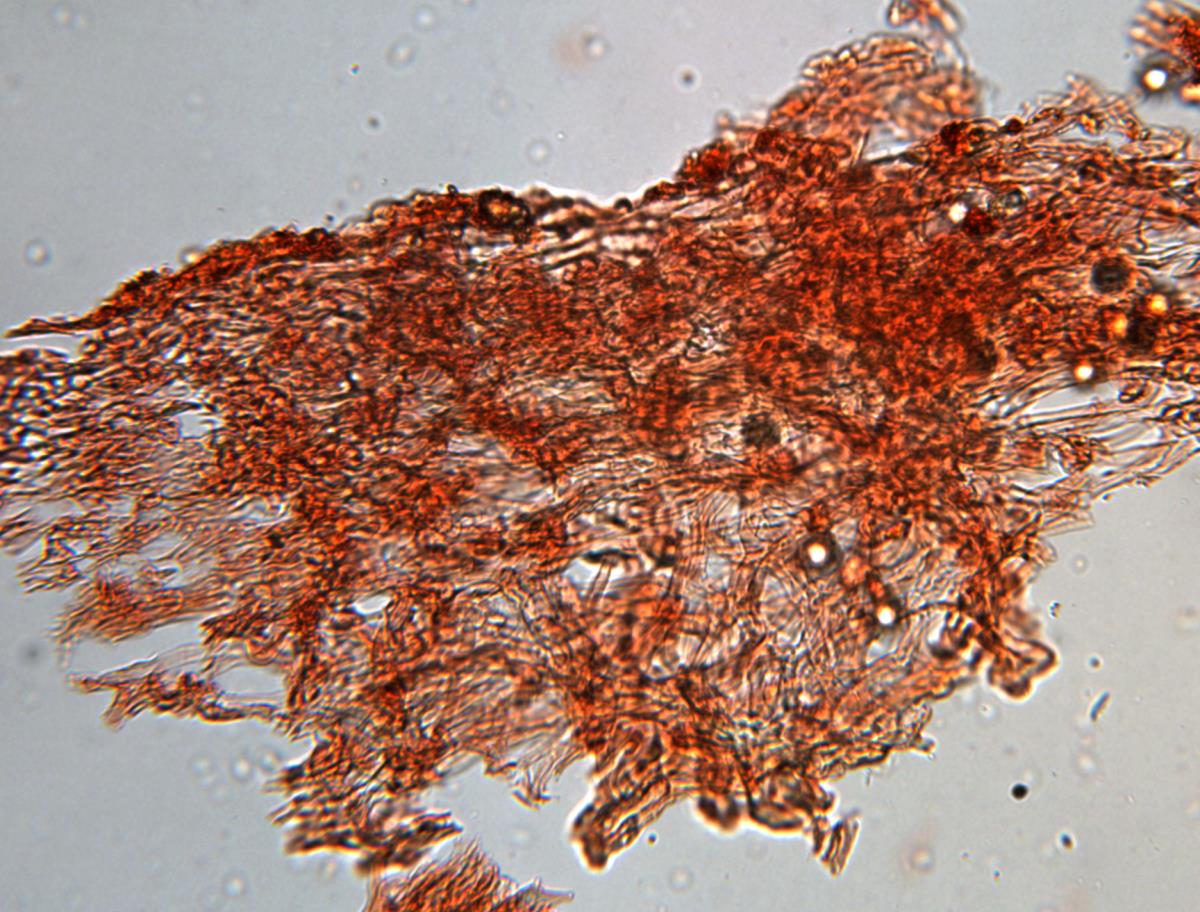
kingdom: Fungi
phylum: Basidiomycota
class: Agaricomycetes
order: Agaricales
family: Hydnangiaceae
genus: Hydnangium
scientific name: Hydnangium kanuka
